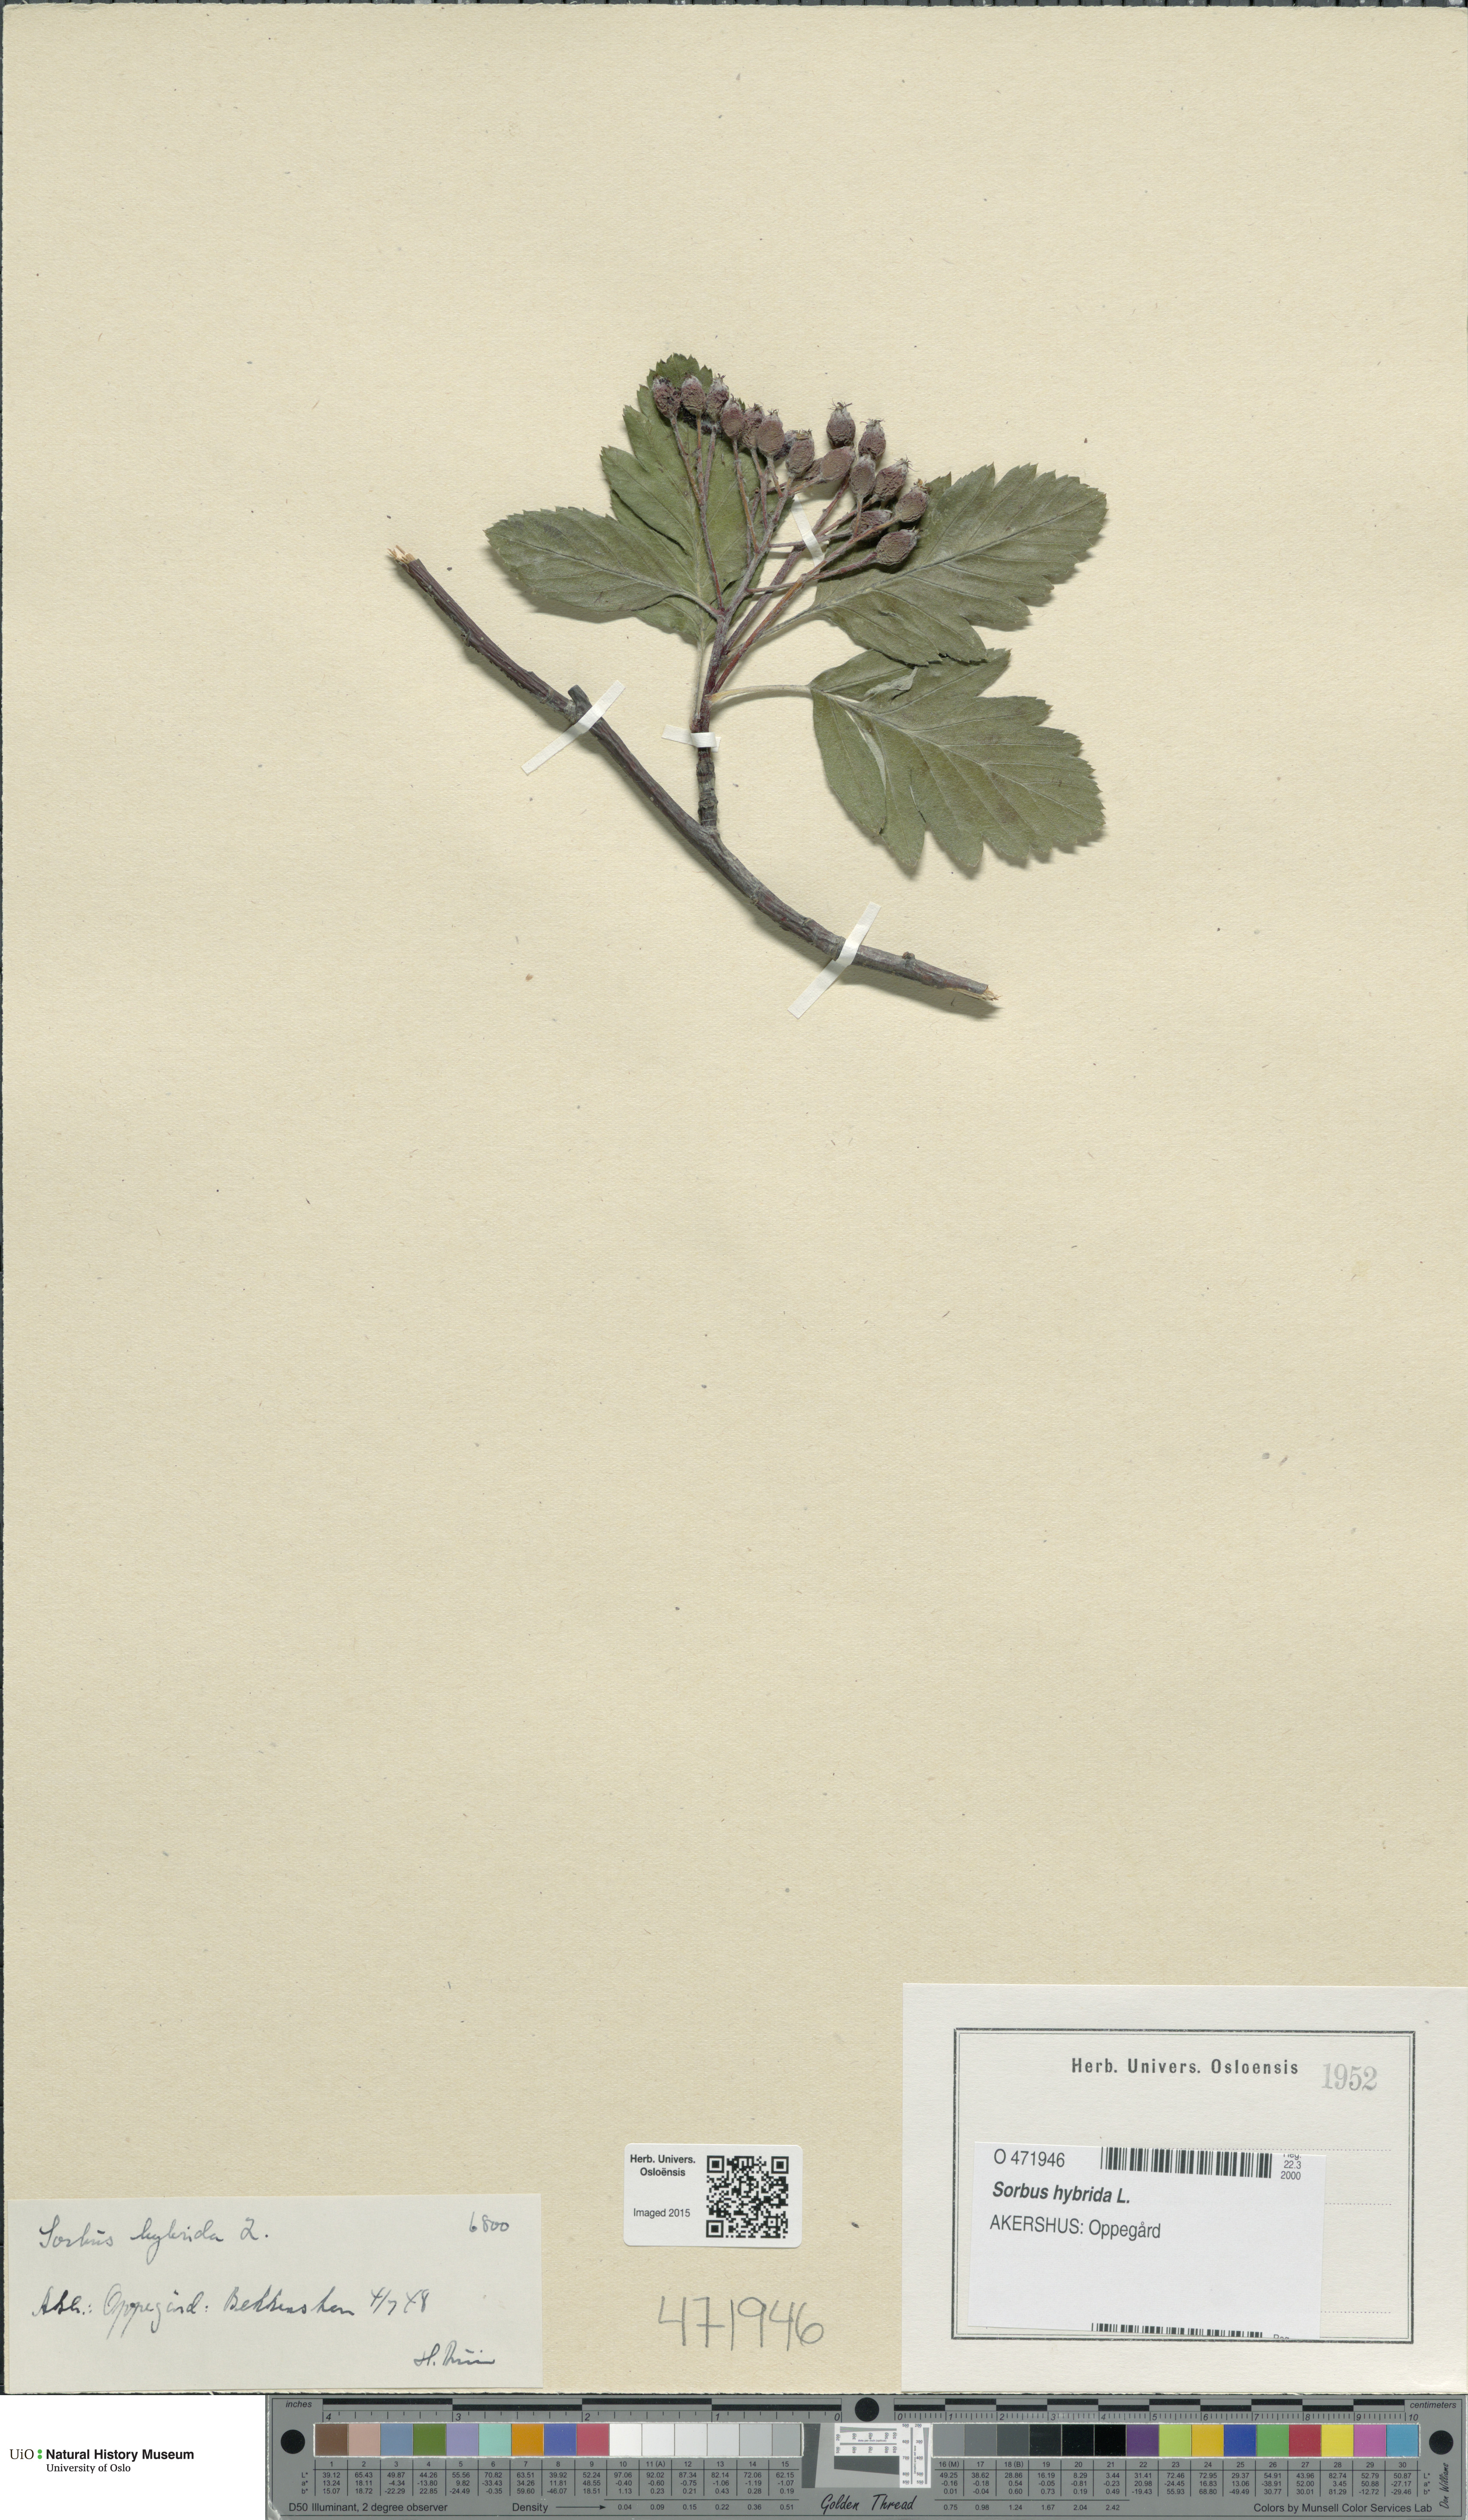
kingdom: Plantae
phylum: Tracheophyta
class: Magnoliopsida
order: Rosales
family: Rosaceae
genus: Hedlundia
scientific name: Hedlundia hybrida
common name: Swedish service-tree
